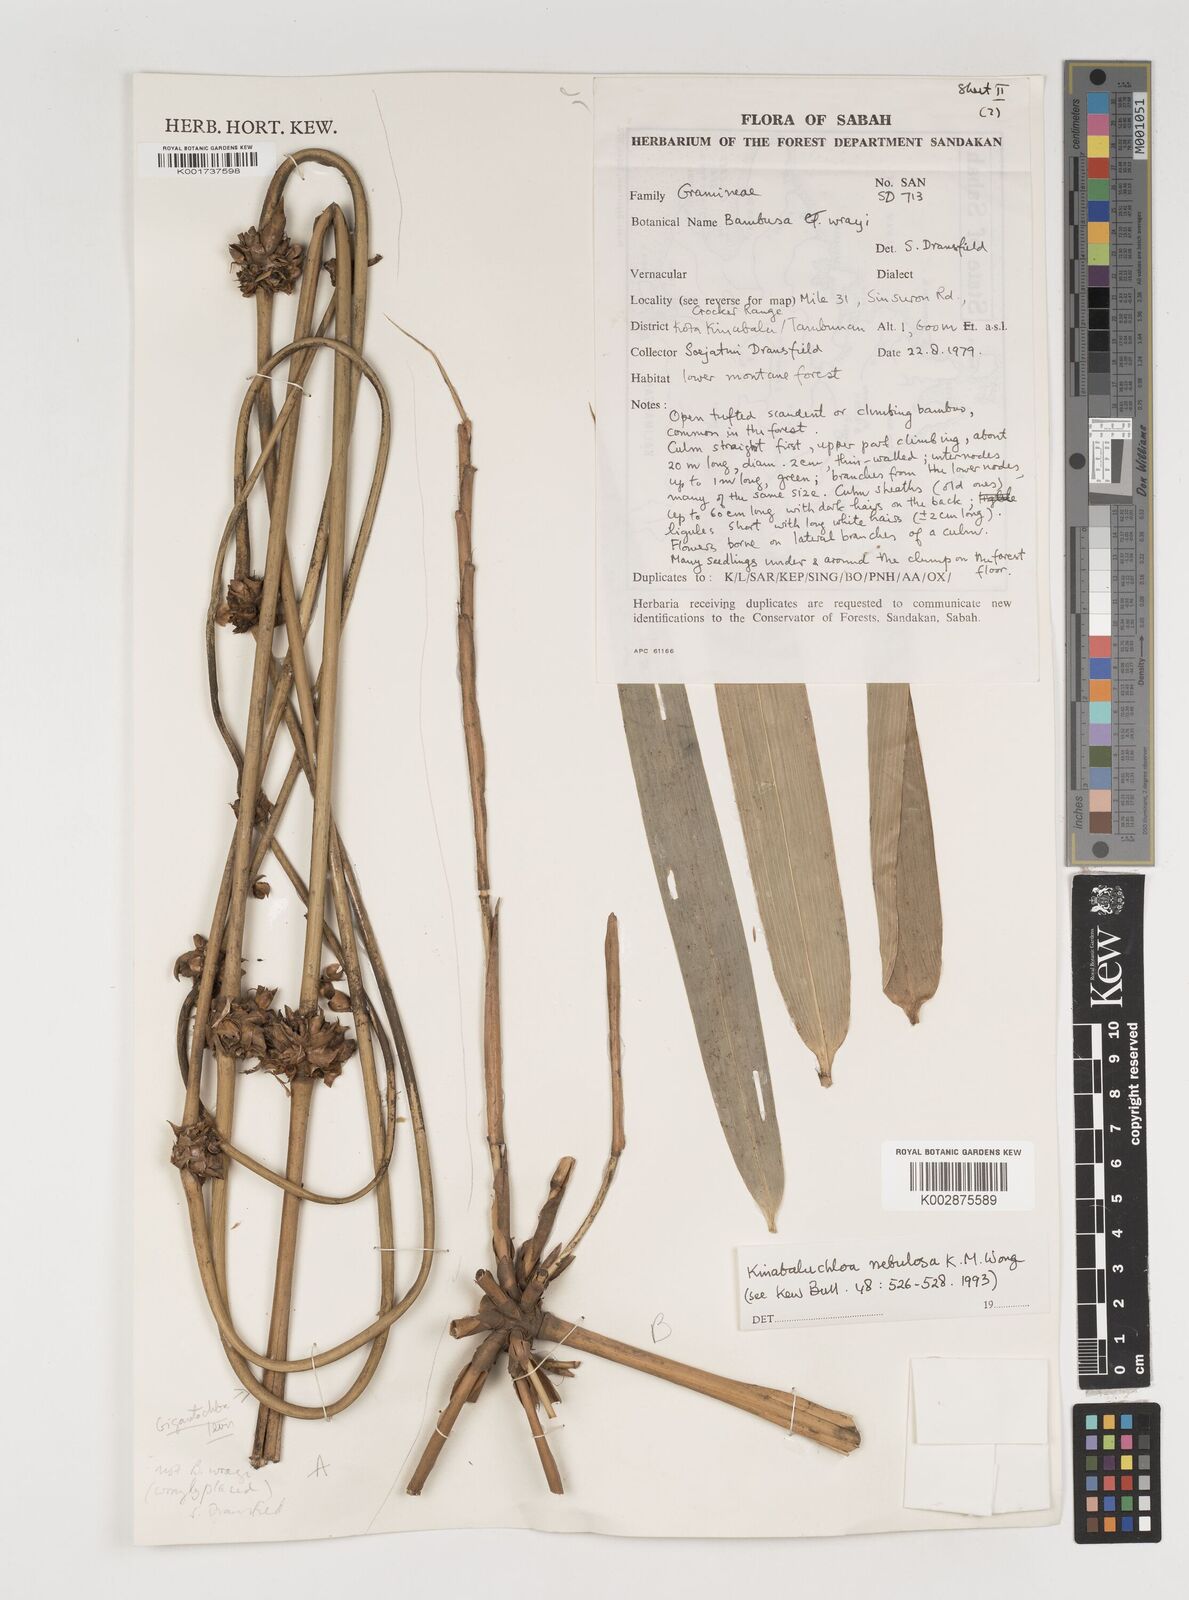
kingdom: Plantae
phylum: Tracheophyta
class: Liliopsida
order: Poales
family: Poaceae
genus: Kinabaluchloa
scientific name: Kinabaluchloa wrayi
